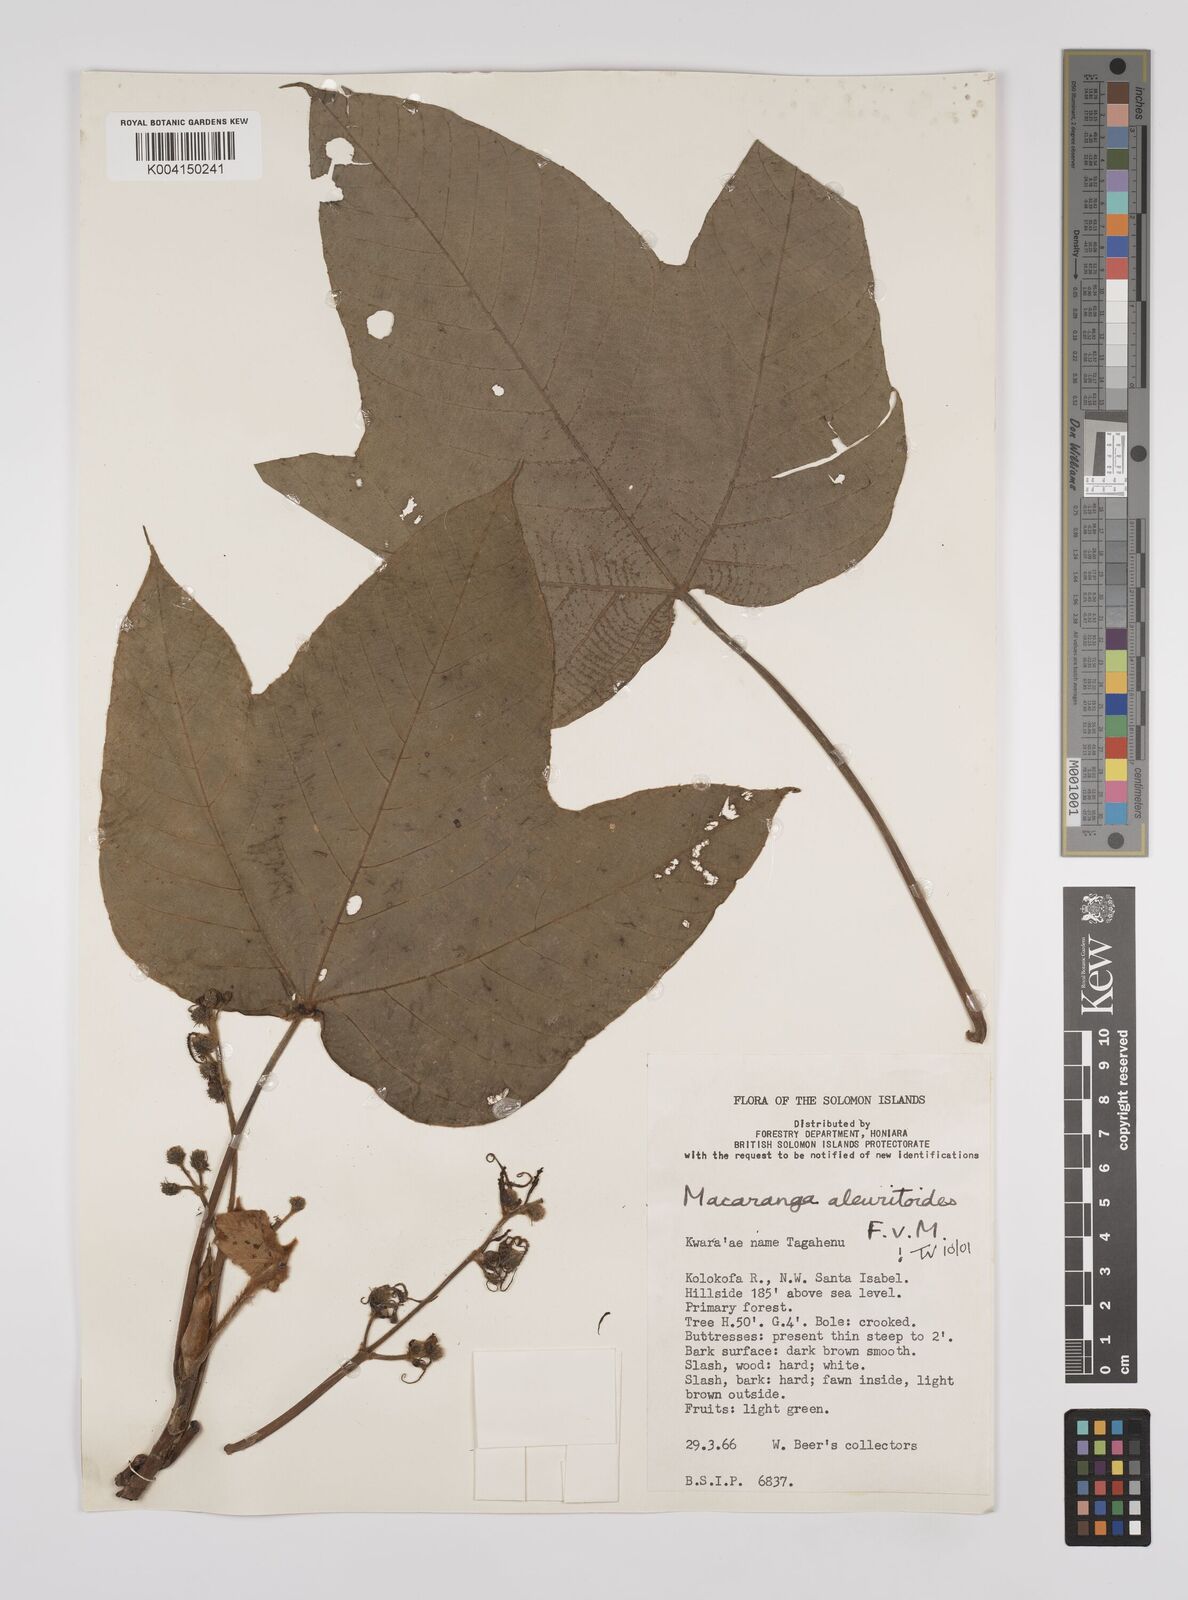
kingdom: Plantae
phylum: Tracheophyta
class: Magnoliopsida
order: Malpighiales
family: Euphorbiaceae
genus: Macaranga
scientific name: Macaranga aleuritoides
